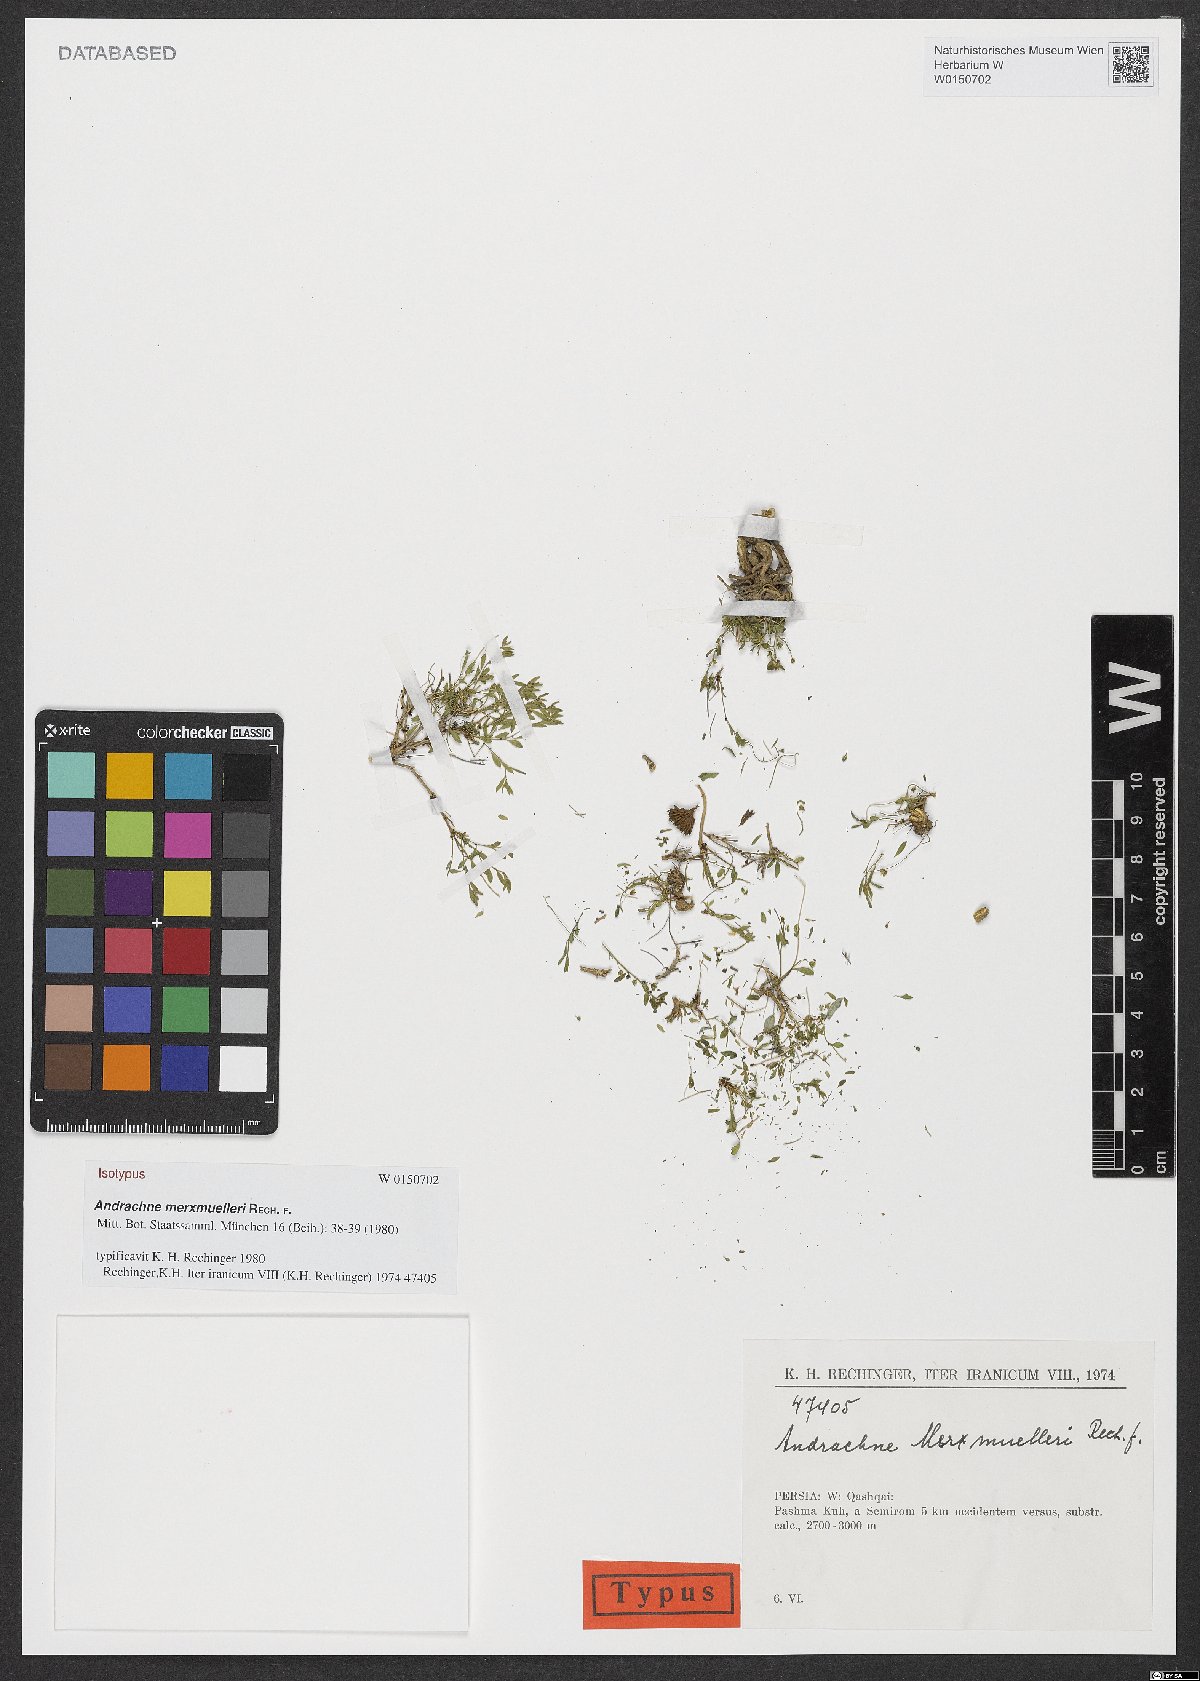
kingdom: Plantae
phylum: Tracheophyta
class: Magnoliopsida
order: Malpighiales
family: Phyllanthaceae
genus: Andrachne
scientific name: Andrachne merxmuelleri
